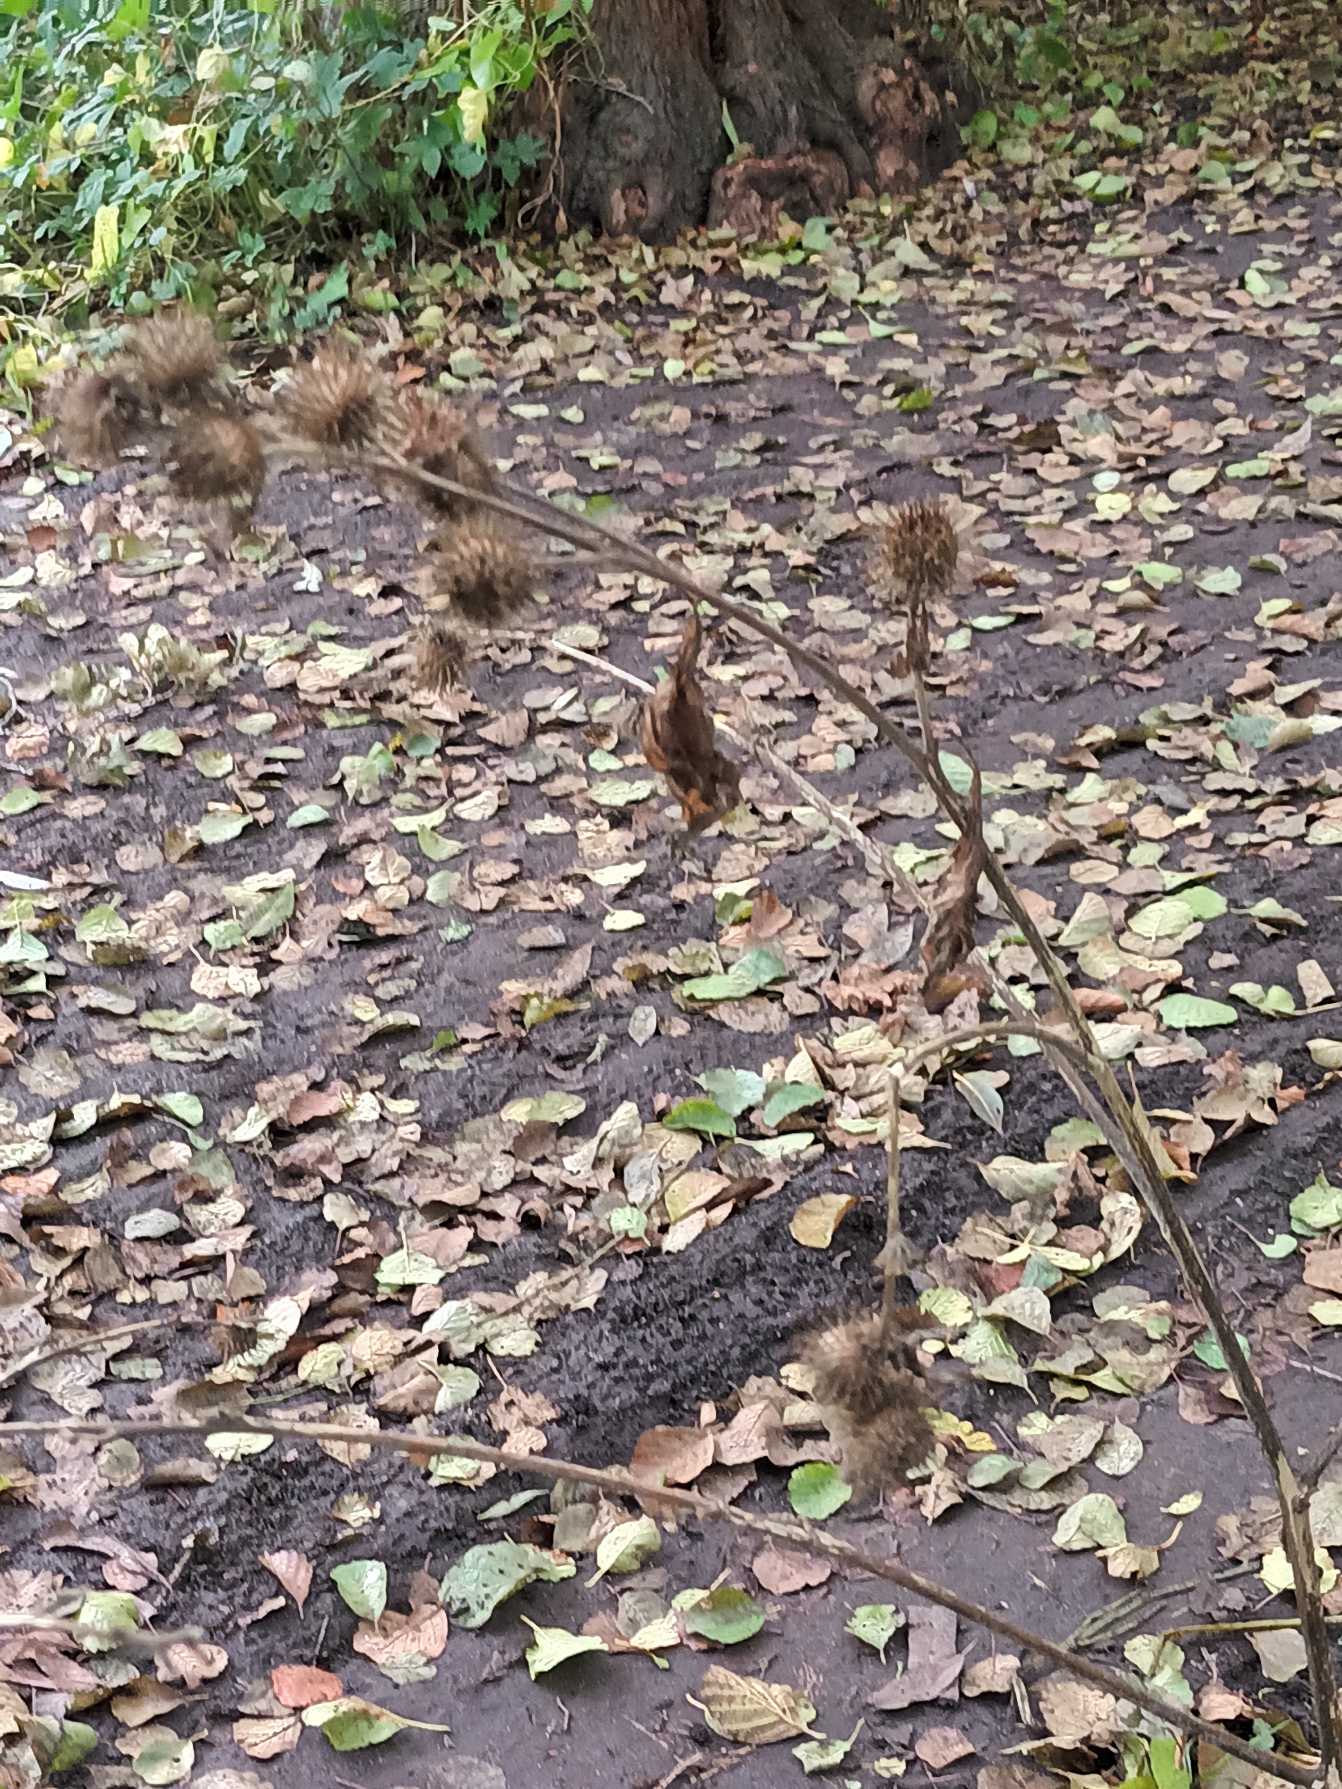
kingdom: Plantae
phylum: Tracheophyta
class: Magnoliopsida
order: Asterales
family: Asteraceae
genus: Arctium
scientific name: Arctium nemorosum
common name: Skov-burre
